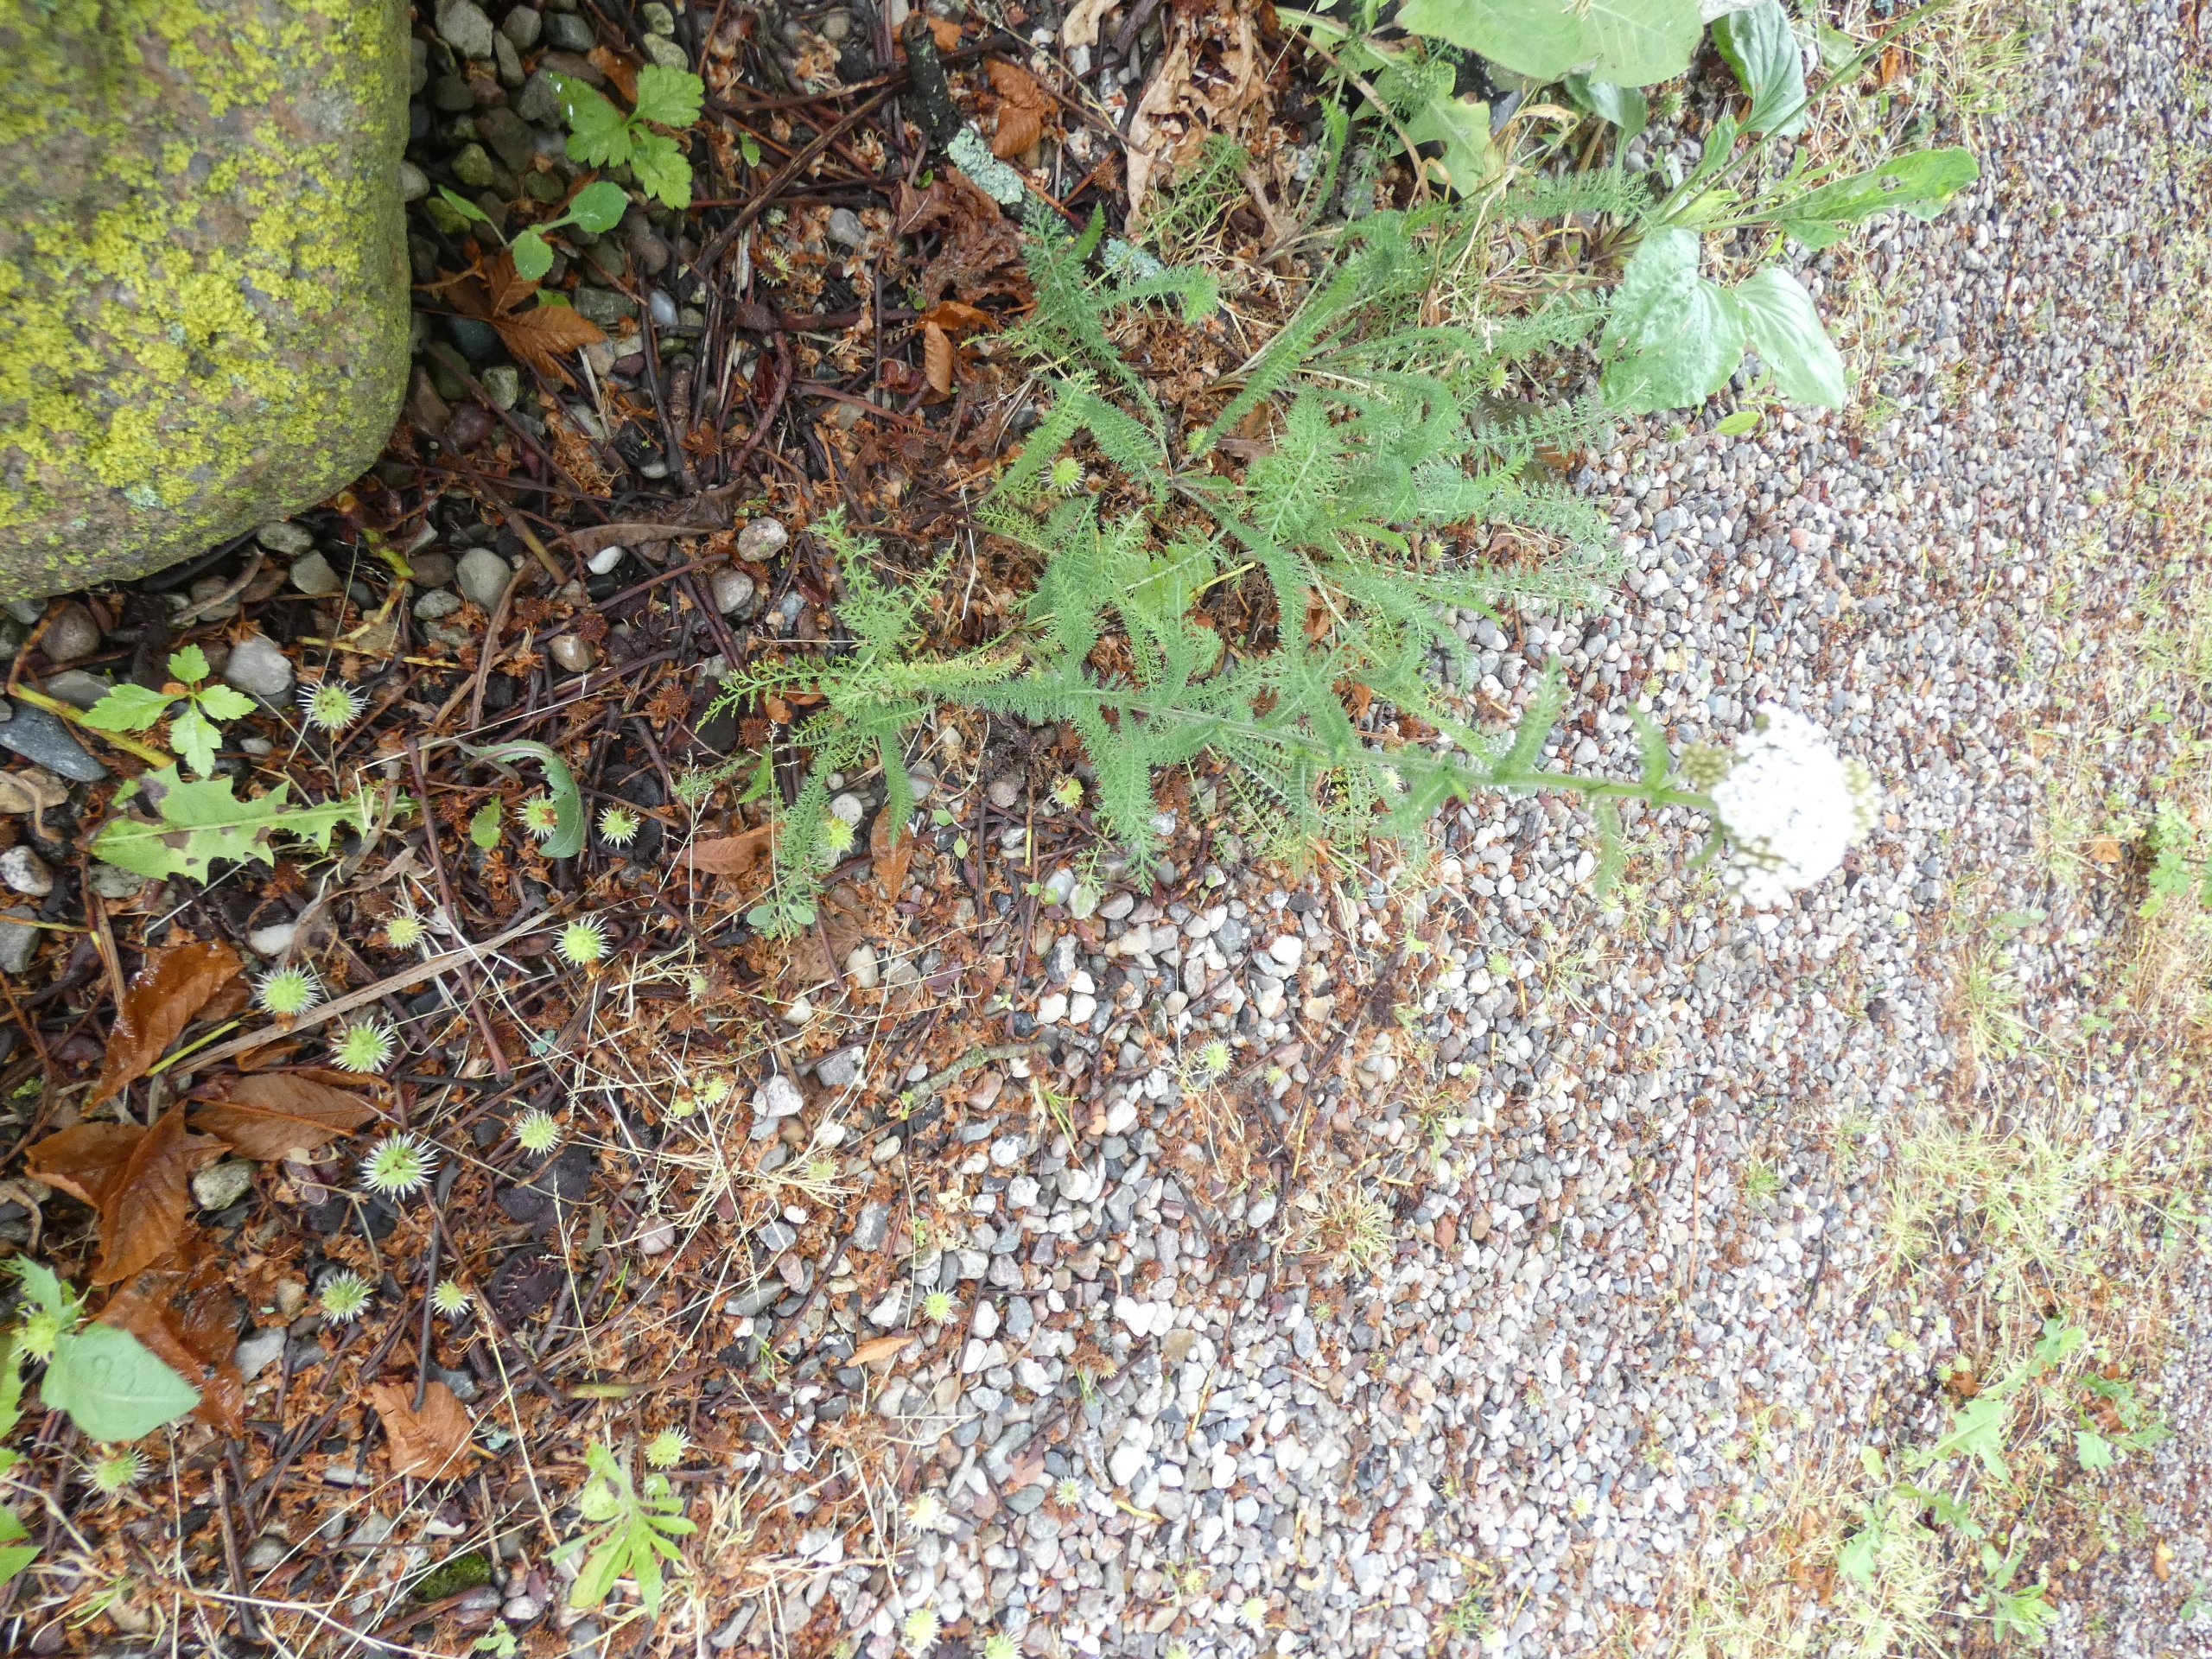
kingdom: Plantae
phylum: Tracheophyta
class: Magnoliopsida
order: Asterales
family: Asteraceae
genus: Achillea
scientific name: Achillea millefolium
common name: Almindelig røllike
